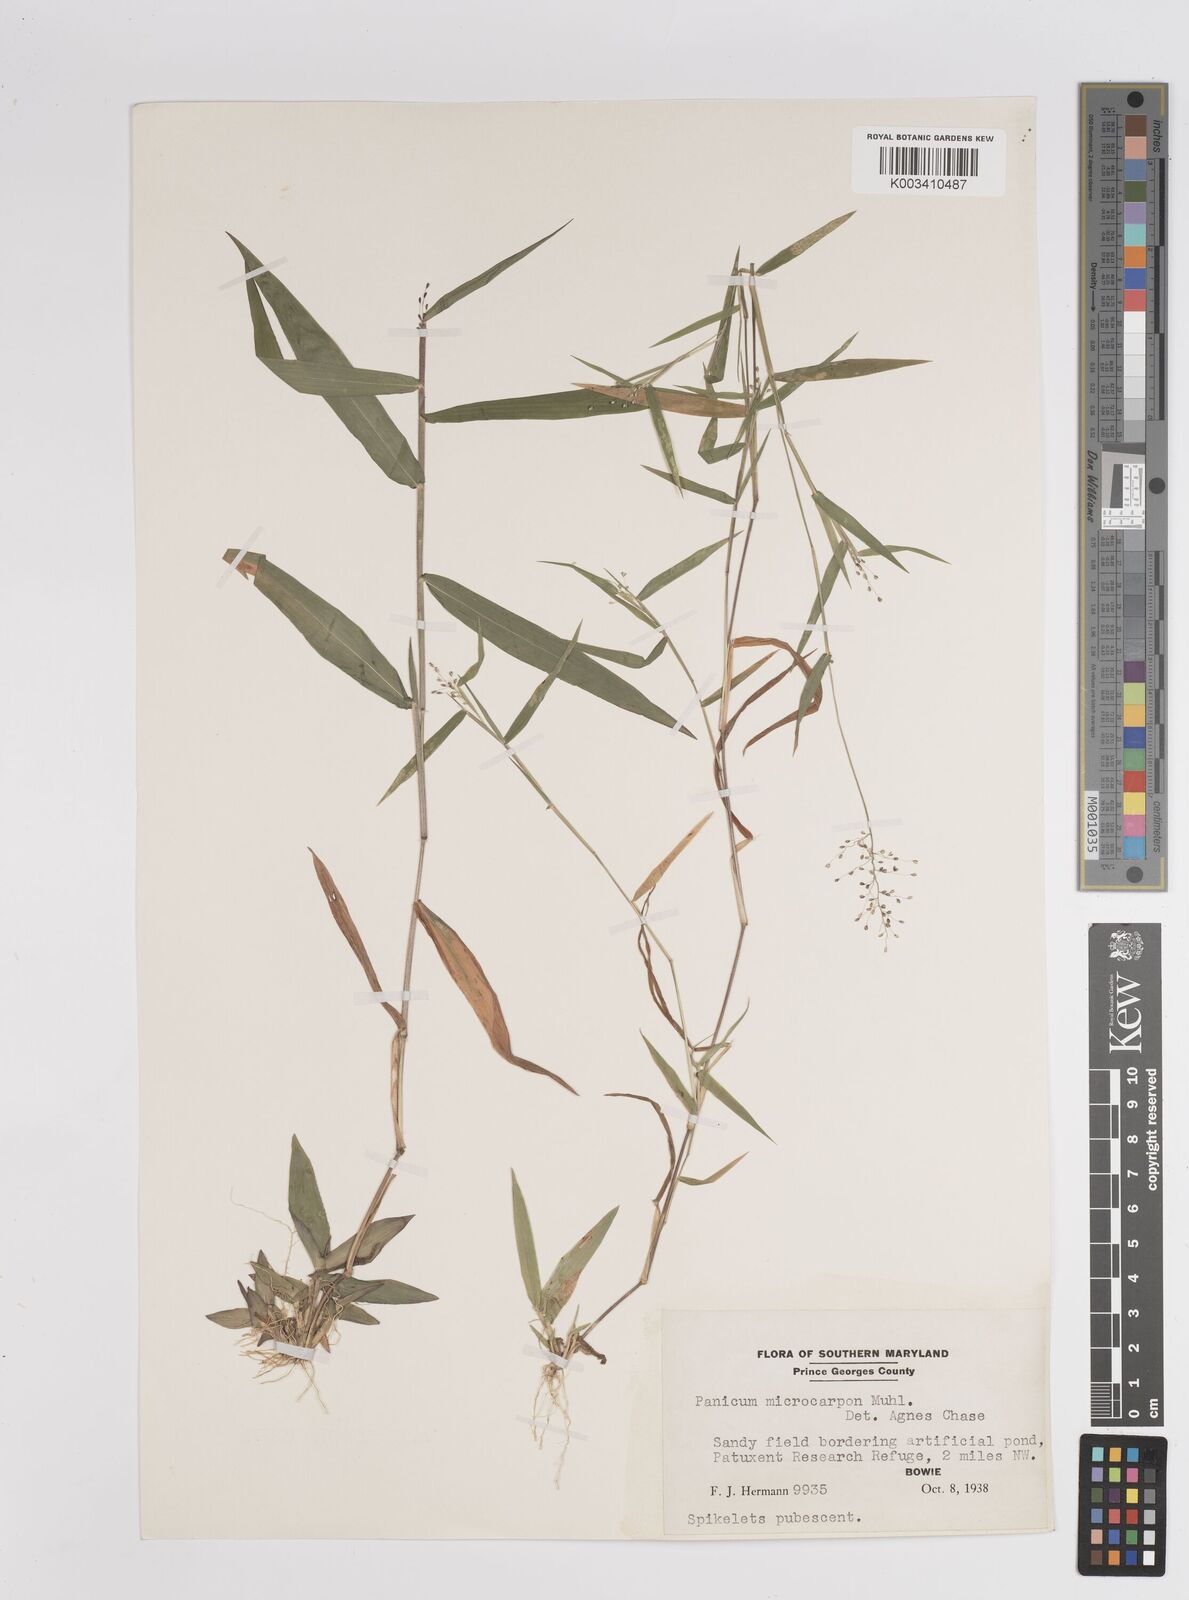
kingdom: Plantae
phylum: Tracheophyta
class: Liliopsida
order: Poales
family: Poaceae
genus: Dichanthelium
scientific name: Dichanthelium polyanthes
